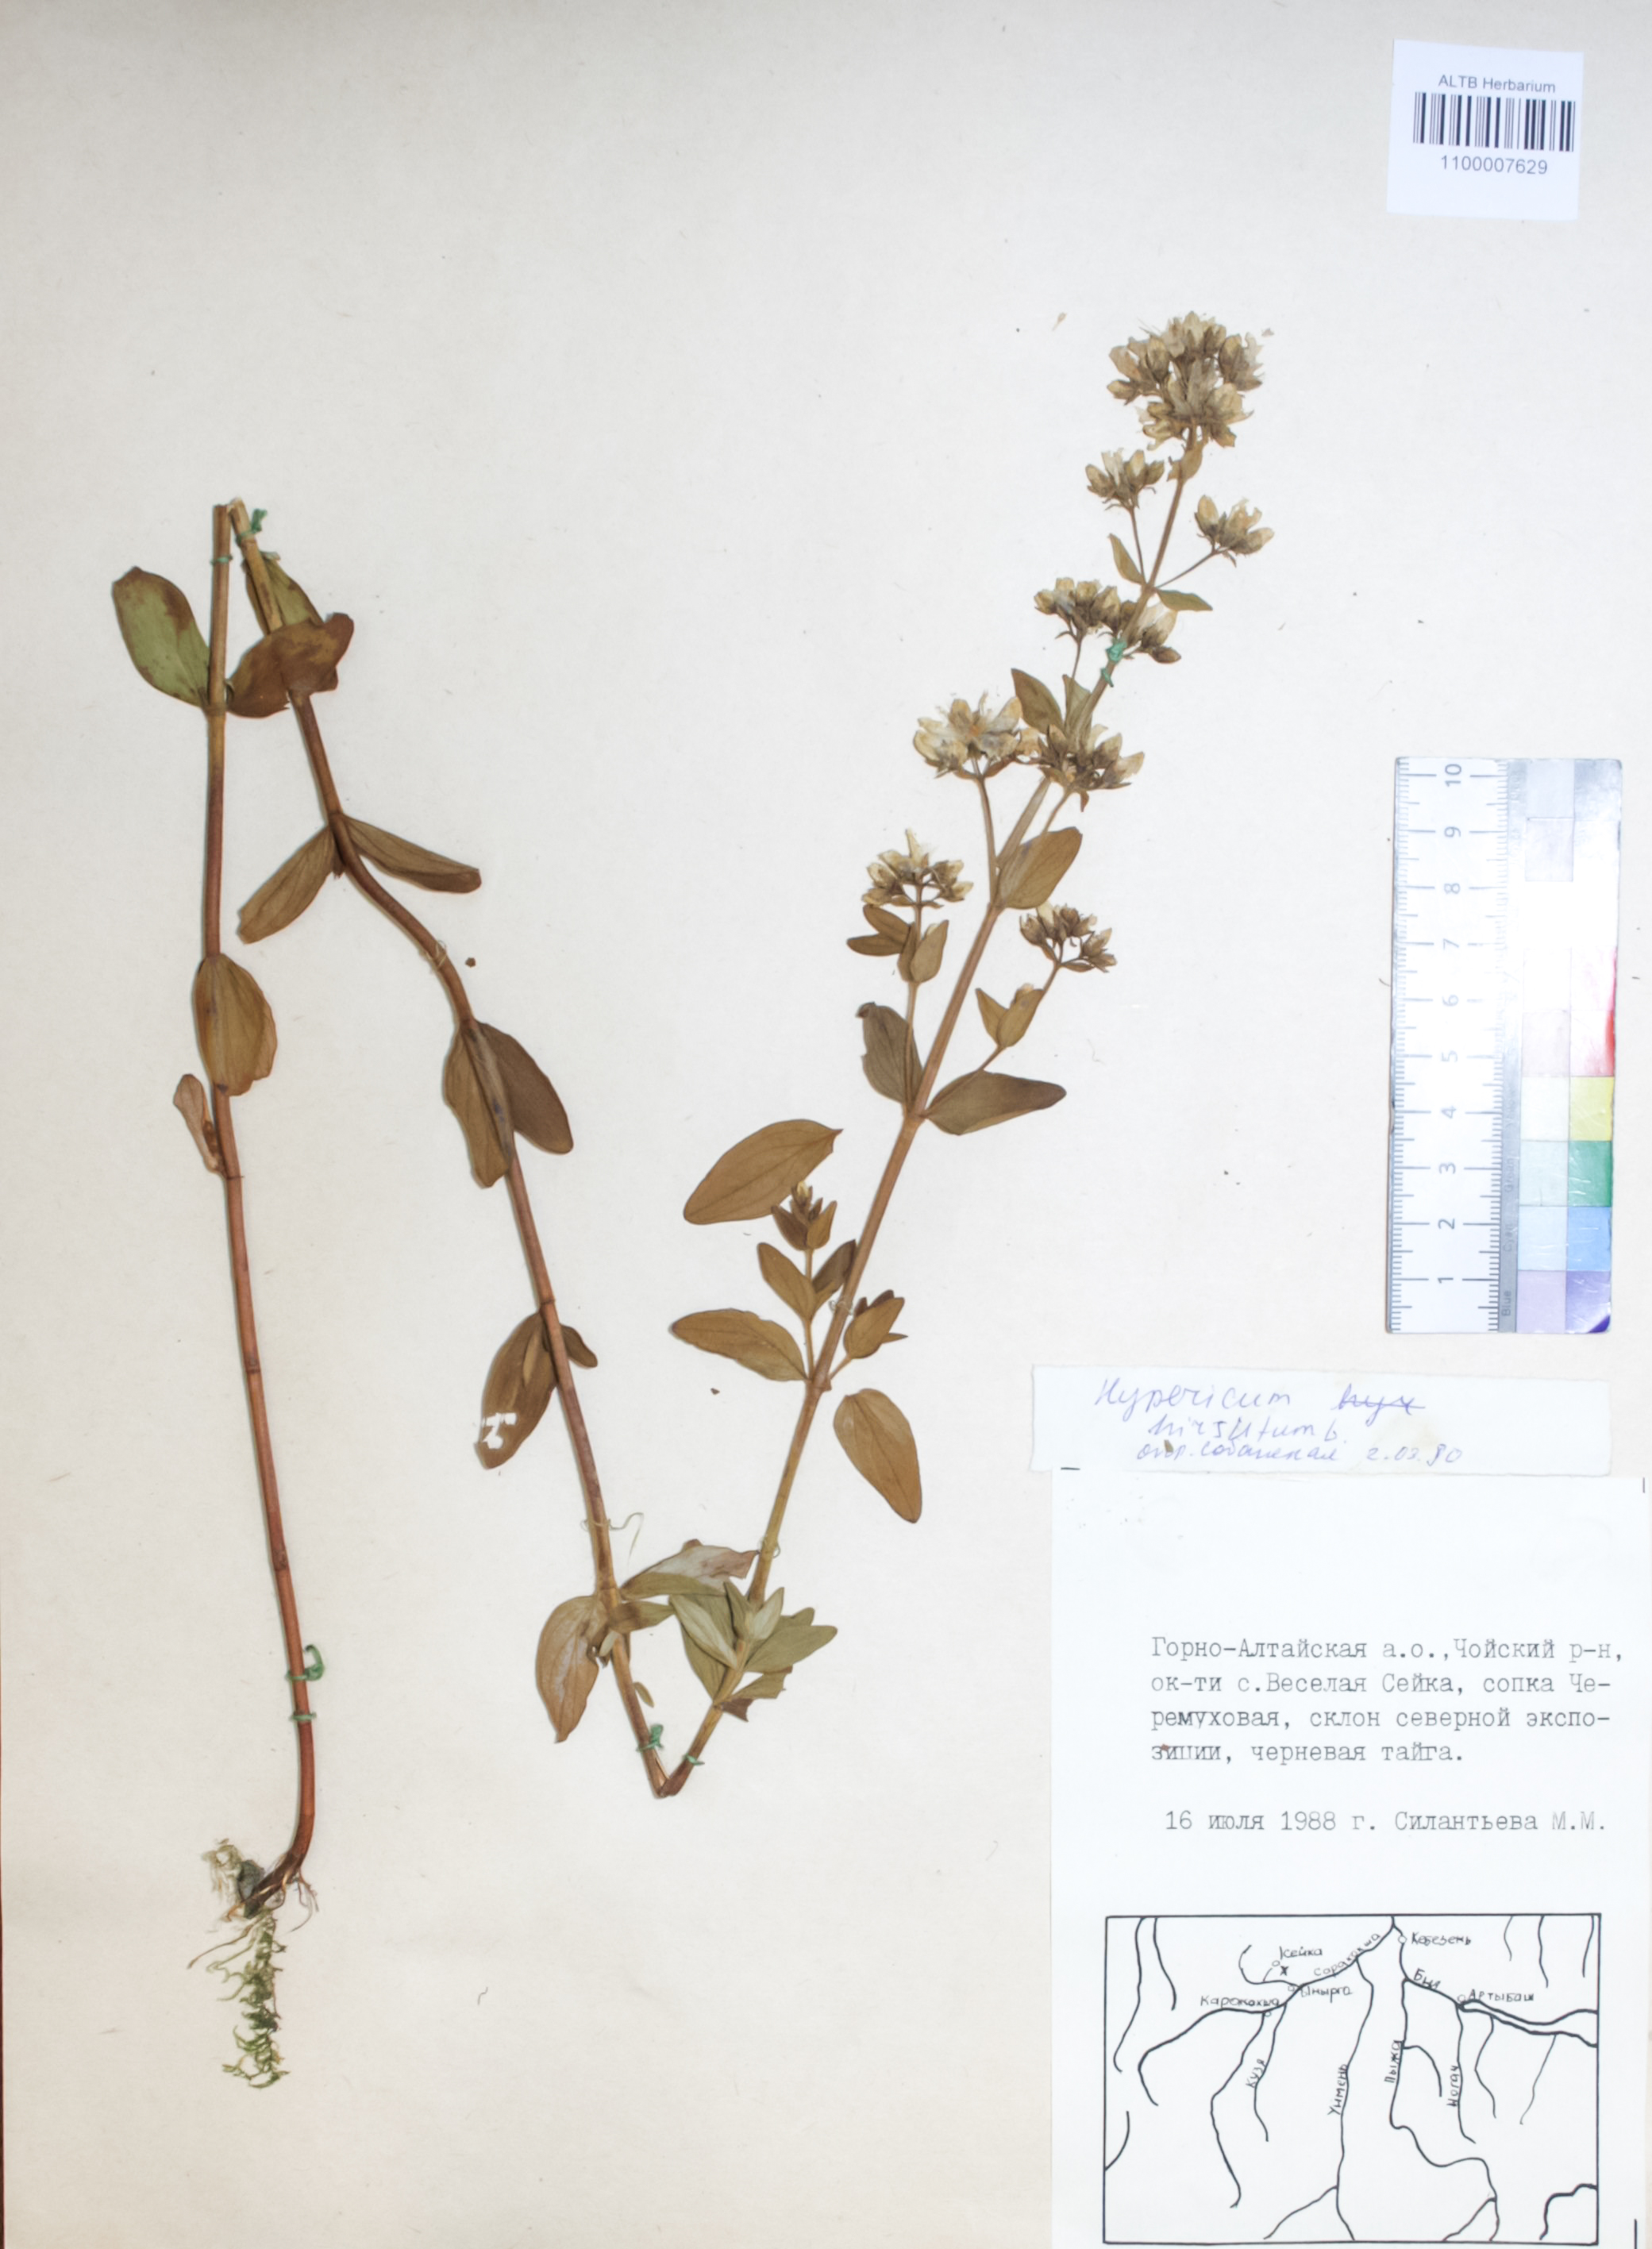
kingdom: Plantae
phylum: Tracheophyta
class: Magnoliopsida
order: Malpighiales
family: Hypericaceae
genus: Hypericum
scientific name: Hypericum hirsutum
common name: Hairy st. john's-wort
